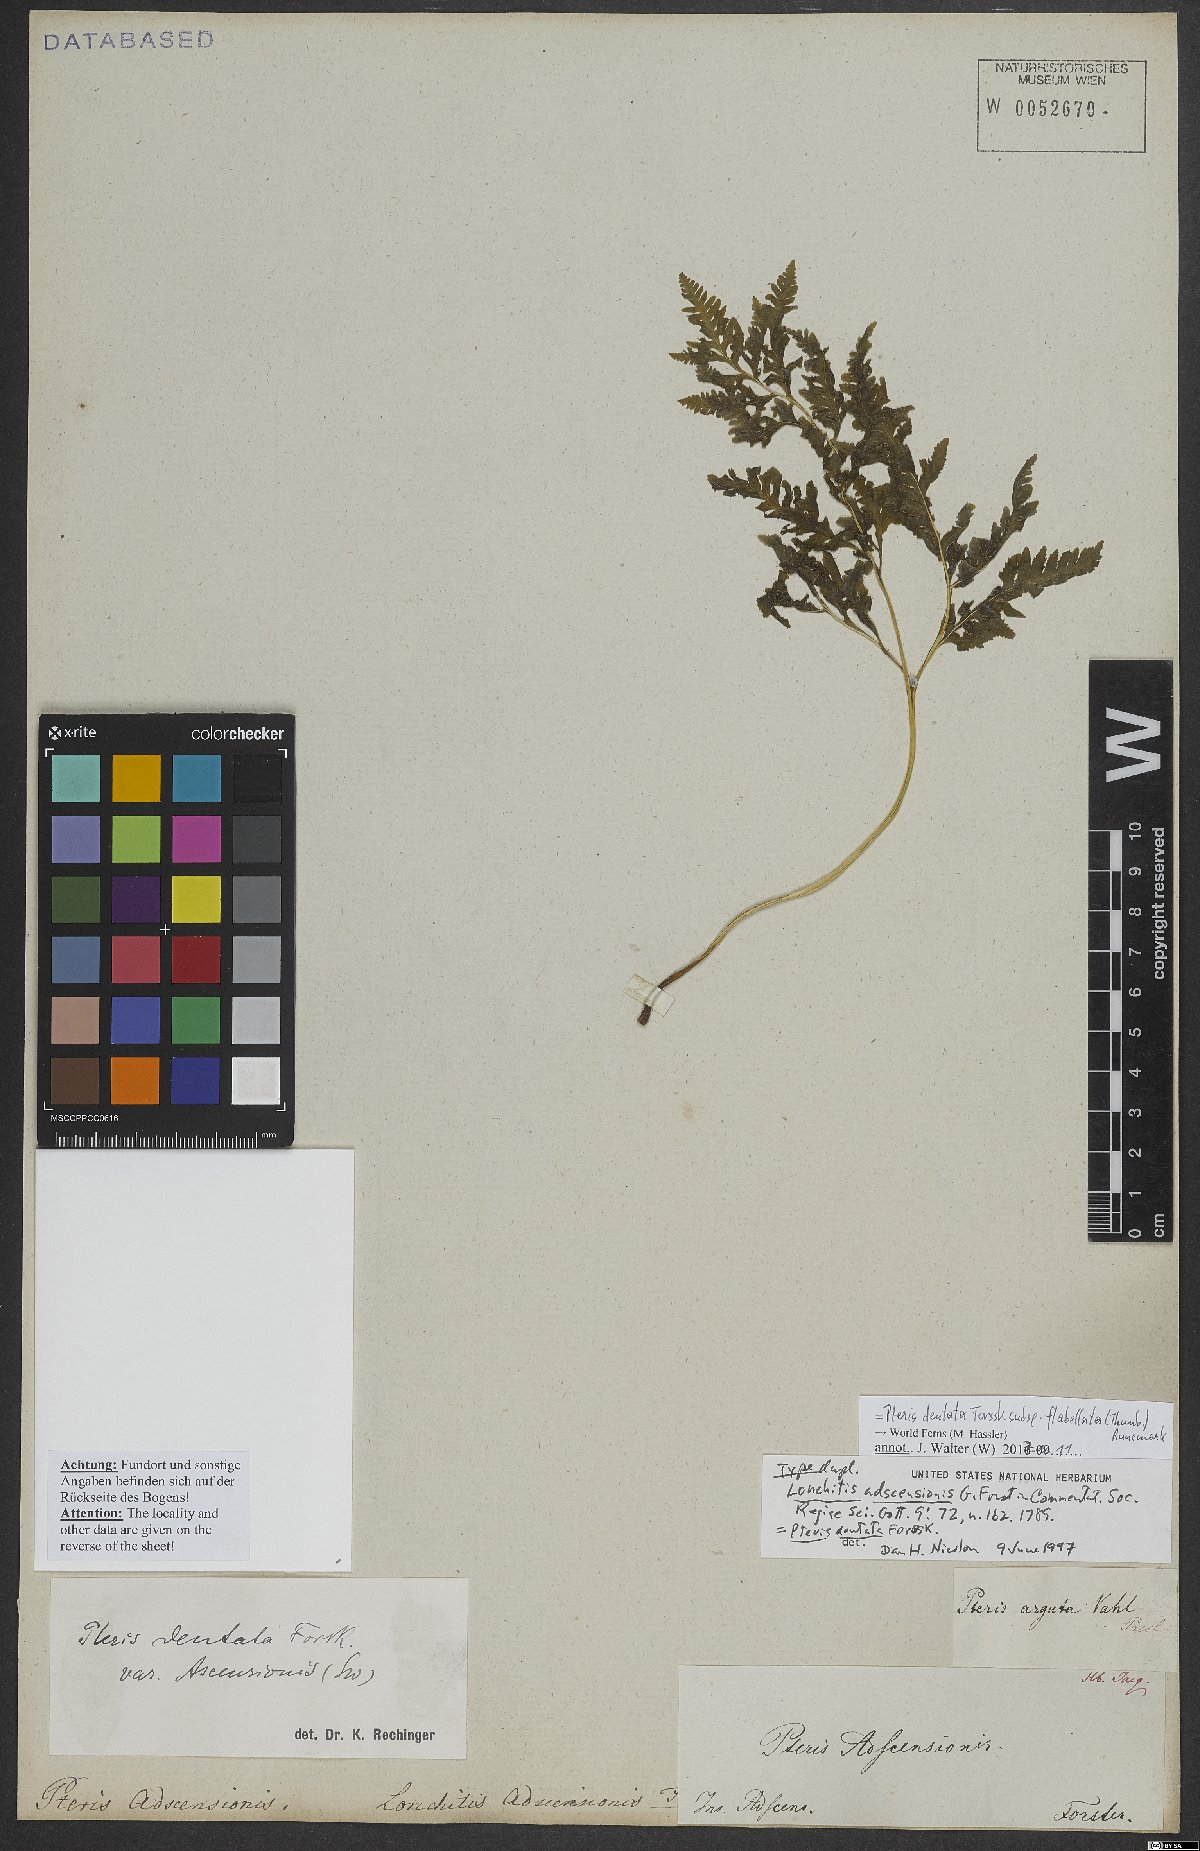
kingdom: Plantae
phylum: Tracheophyta
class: Polypodiopsida
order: Polypodiales
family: Pteridaceae
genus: Pteris
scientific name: Pteris dentata
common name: Toothed brake
